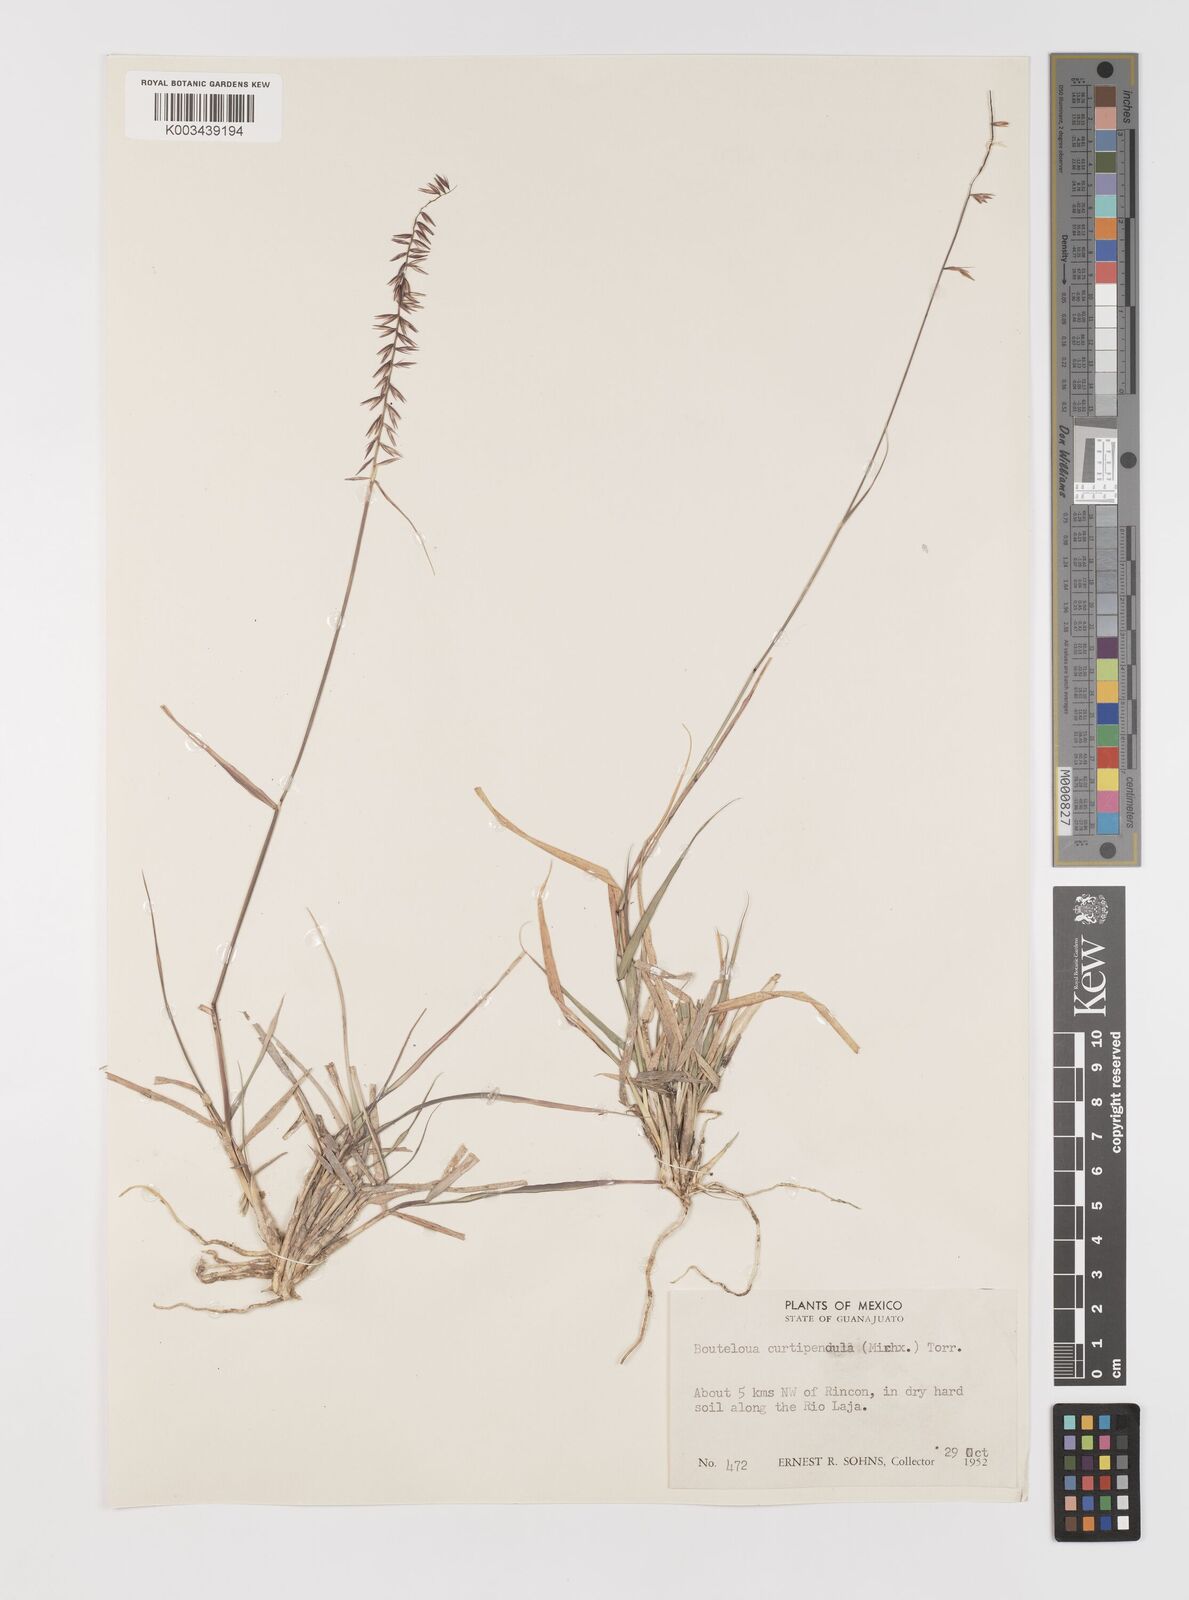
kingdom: Plantae
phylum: Tracheophyta
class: Liliopsida
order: Poales
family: Poaceae
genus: Bouteloua
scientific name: Bouteloua curtipendula
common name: Side-oats grama
